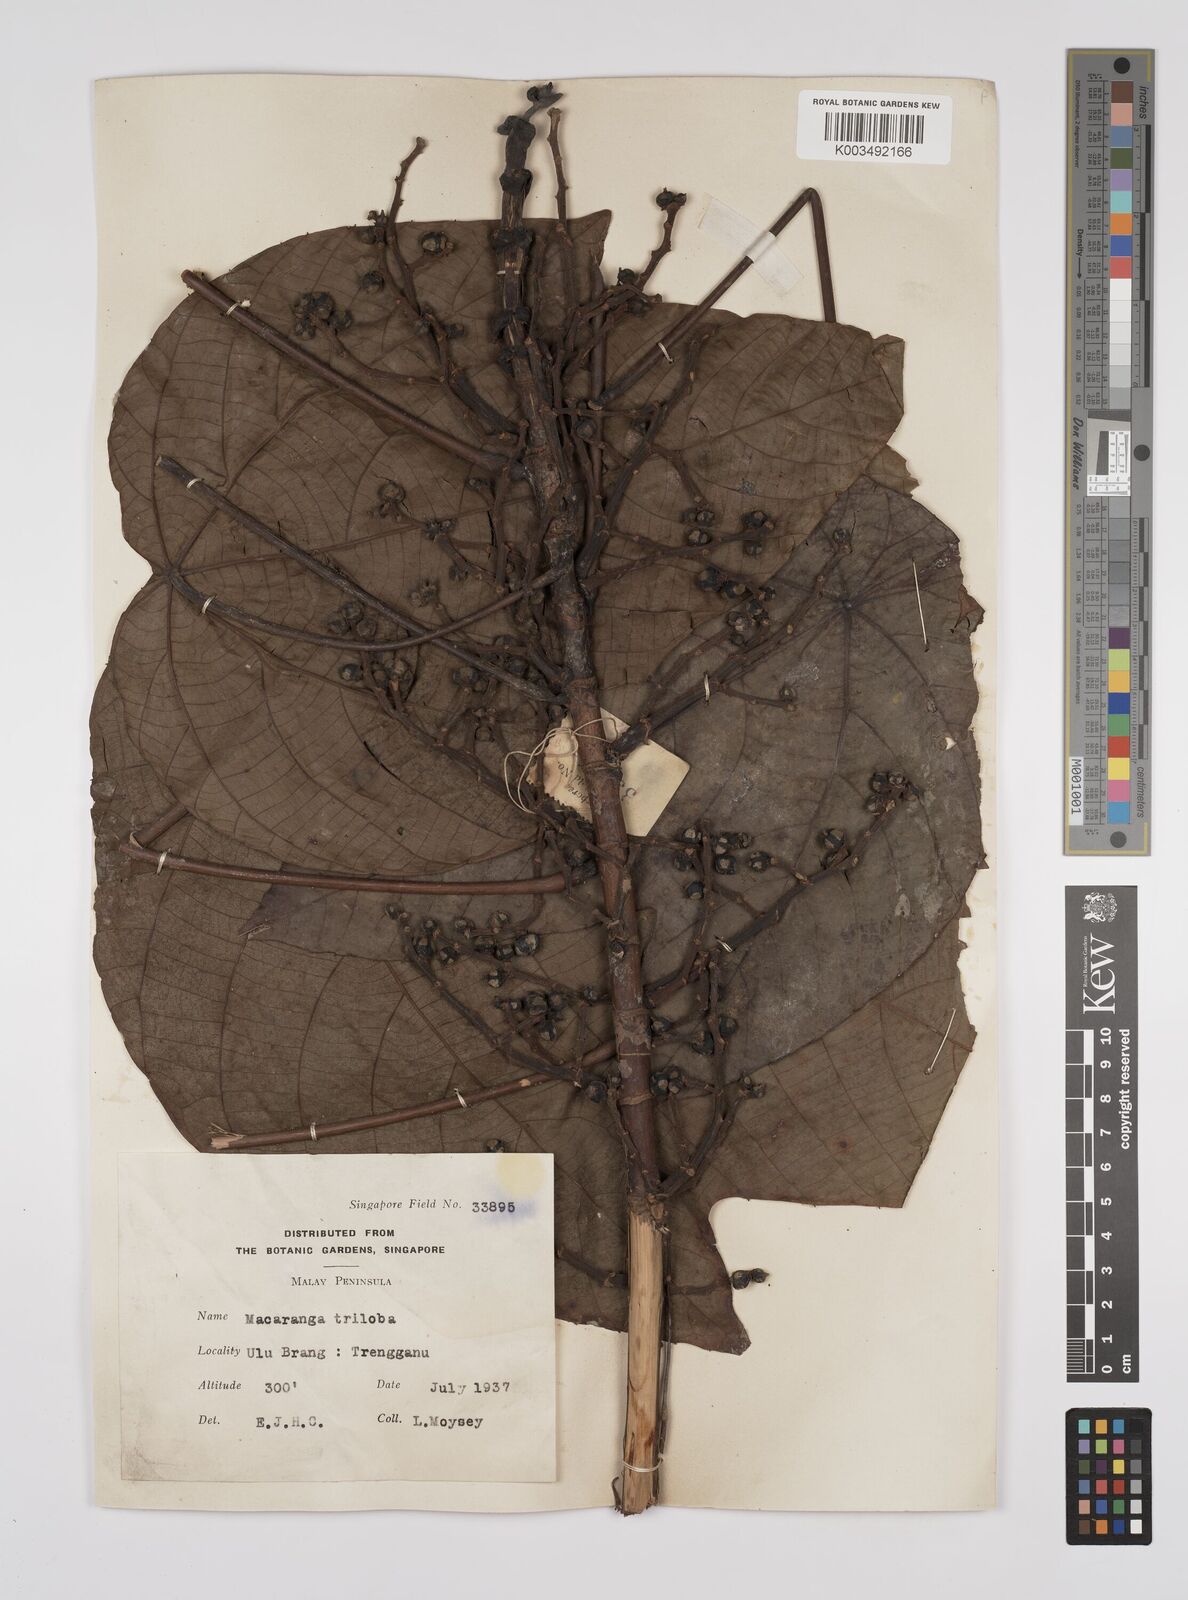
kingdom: Plantae
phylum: Tracheophyta
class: Magnoliopsida
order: Malpighiales
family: Euphorbiaceae
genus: Macaranga
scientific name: Macaranga triloba
